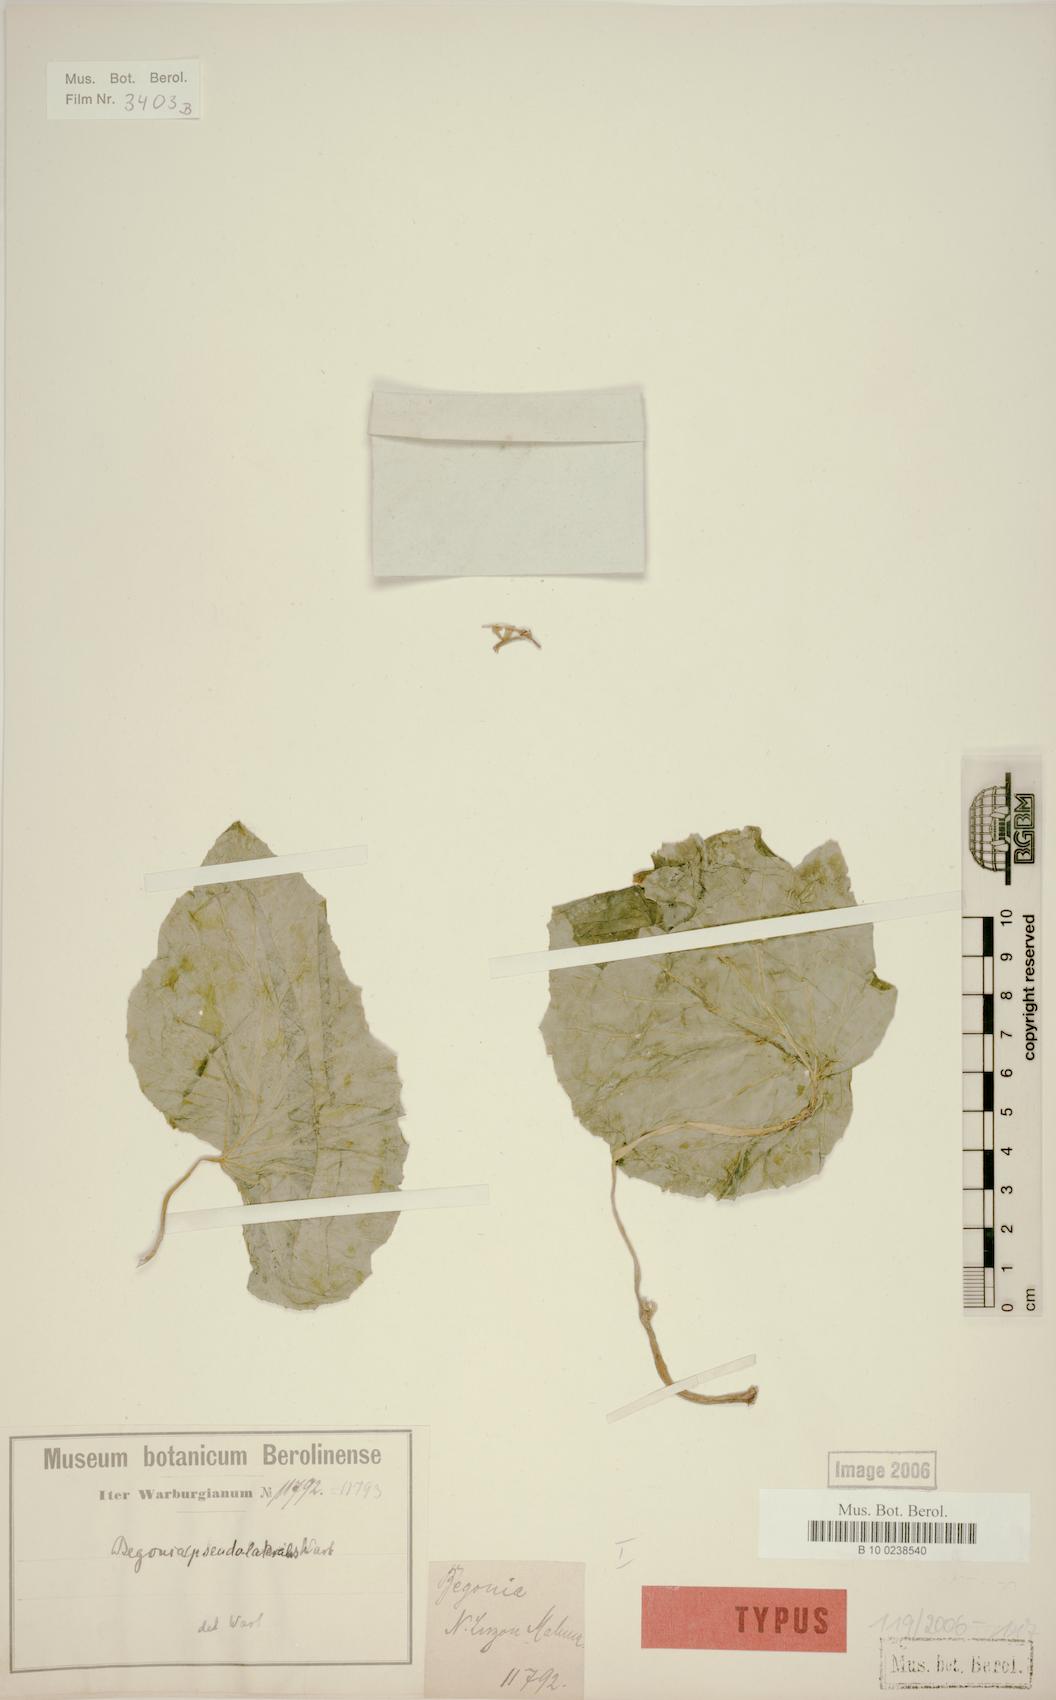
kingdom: Plantae
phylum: Tracheophyta
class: Magnoliopsida
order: Cucurbitales
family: Begoniaceae
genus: Begonia
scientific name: Begonia pseudolateralis
